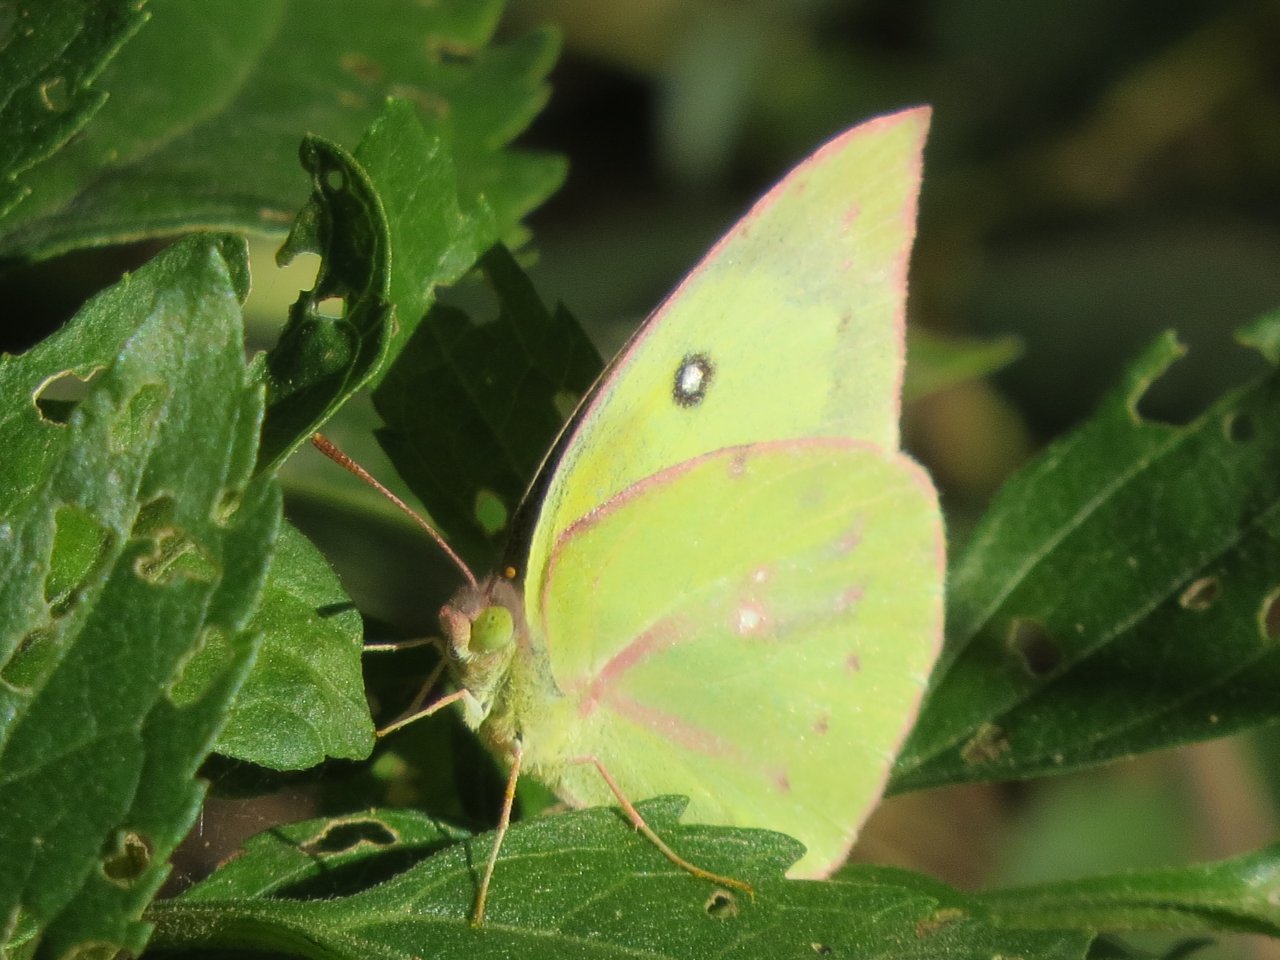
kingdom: Animalia
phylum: Arthropoda
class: Insecta
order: Lepidoptera
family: Pieridae
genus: Zerene
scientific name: Zerene cesonia
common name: Southern Dogface
